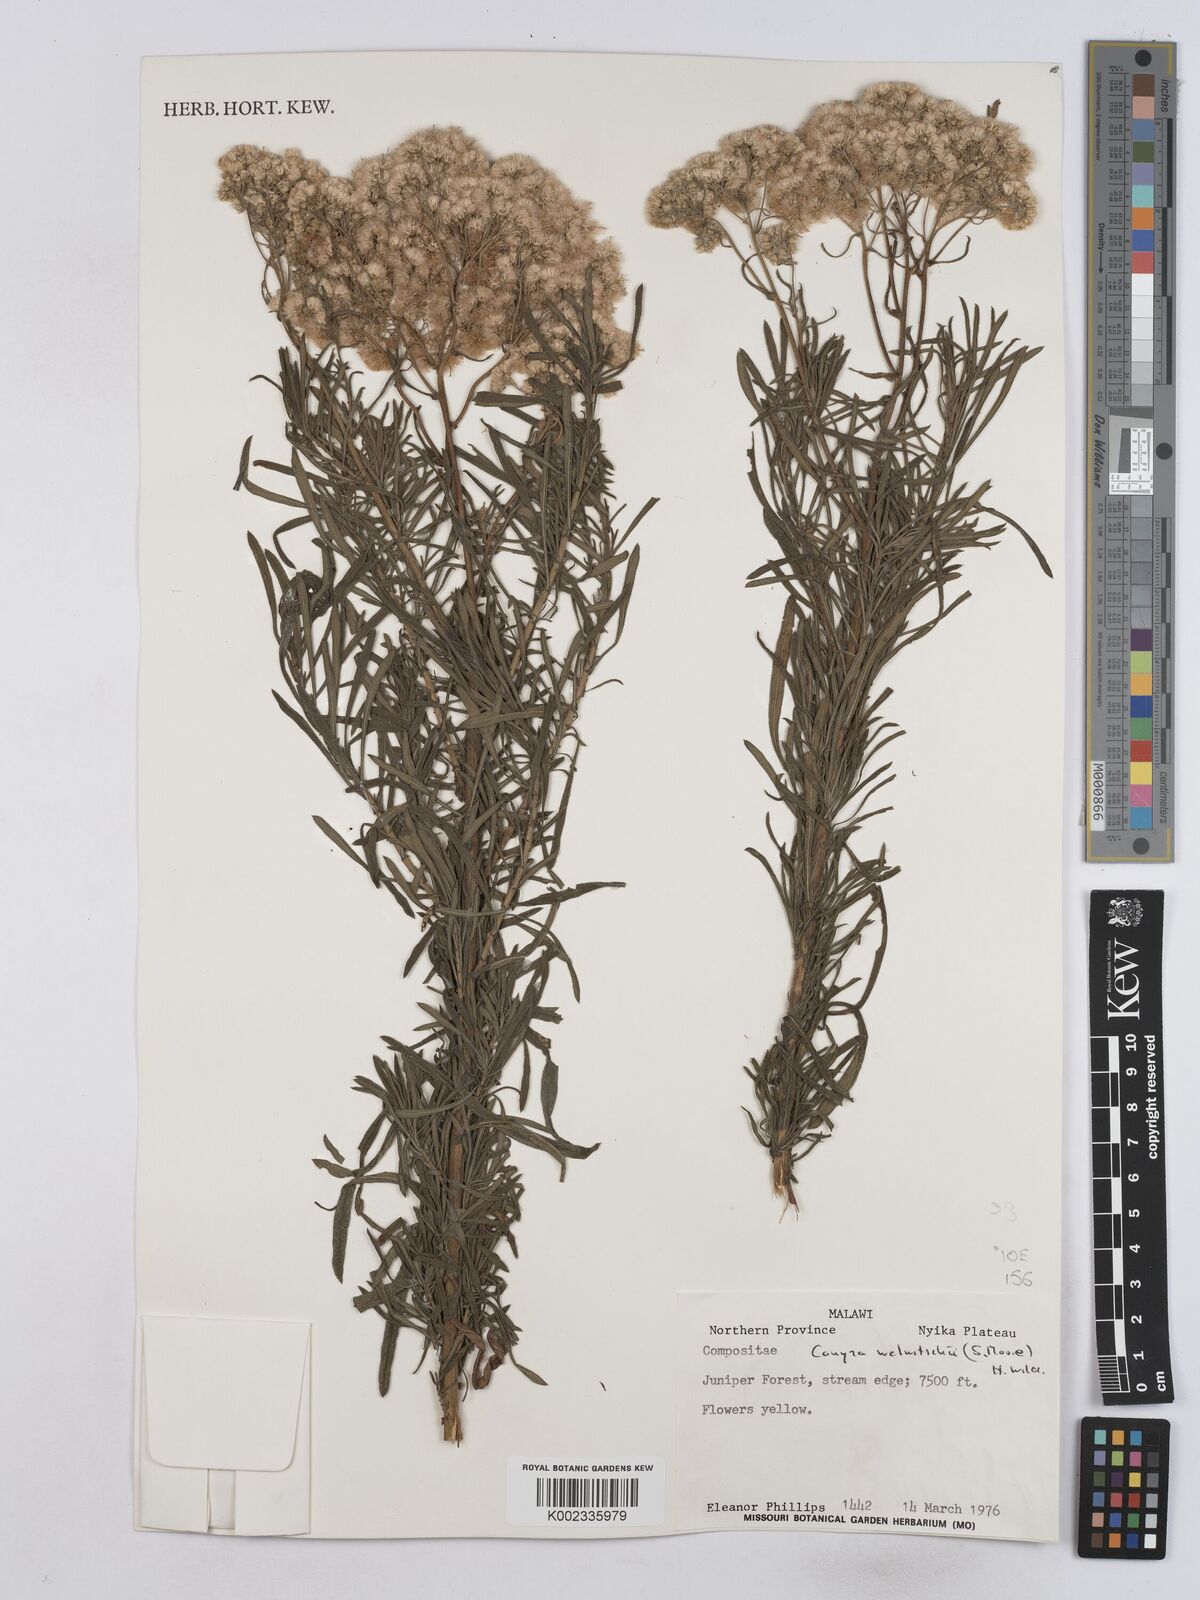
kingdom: Plantae
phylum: Tracheophyta
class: Magnoliopsida
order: Asterales
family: Asteraceae
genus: Nidorella
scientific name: Nidorella welwitschii
